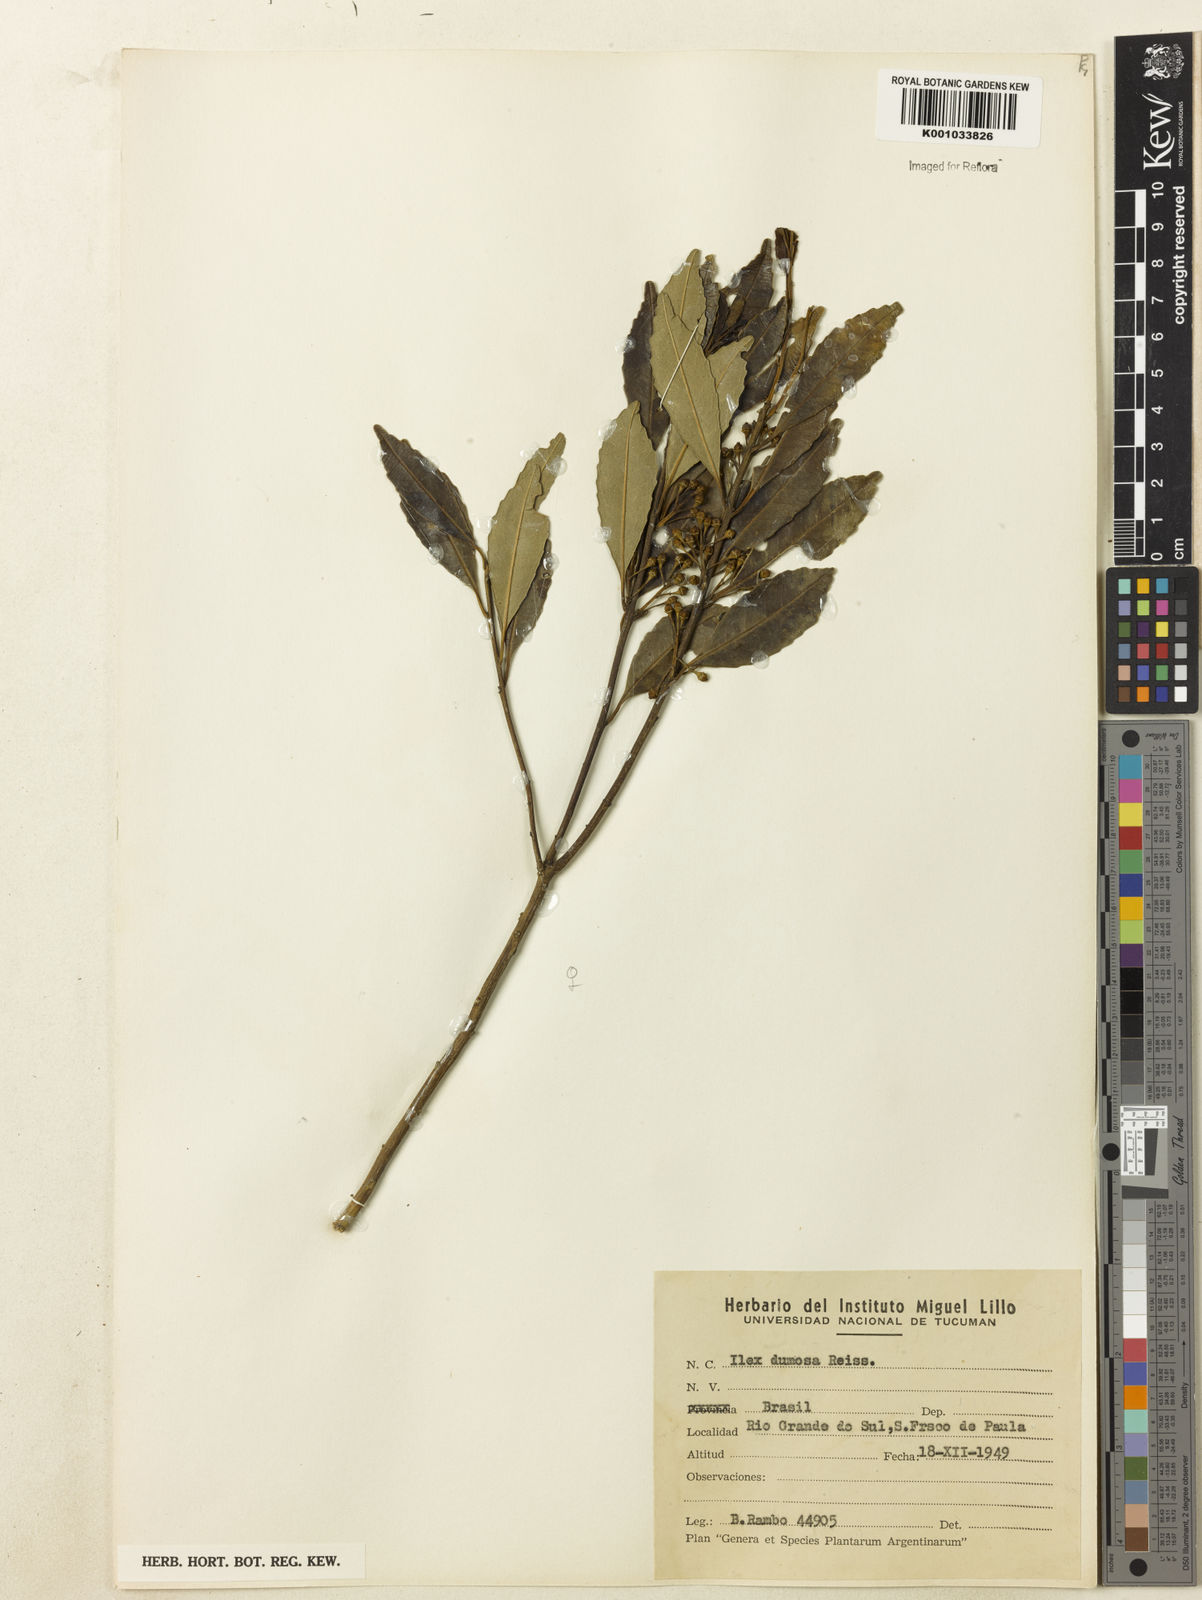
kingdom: Plantae
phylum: Tracheophyta
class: Magnoliopsida
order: Aquifoliales
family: Aquifoliaceae
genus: Ilex
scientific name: Ilex dumosa
